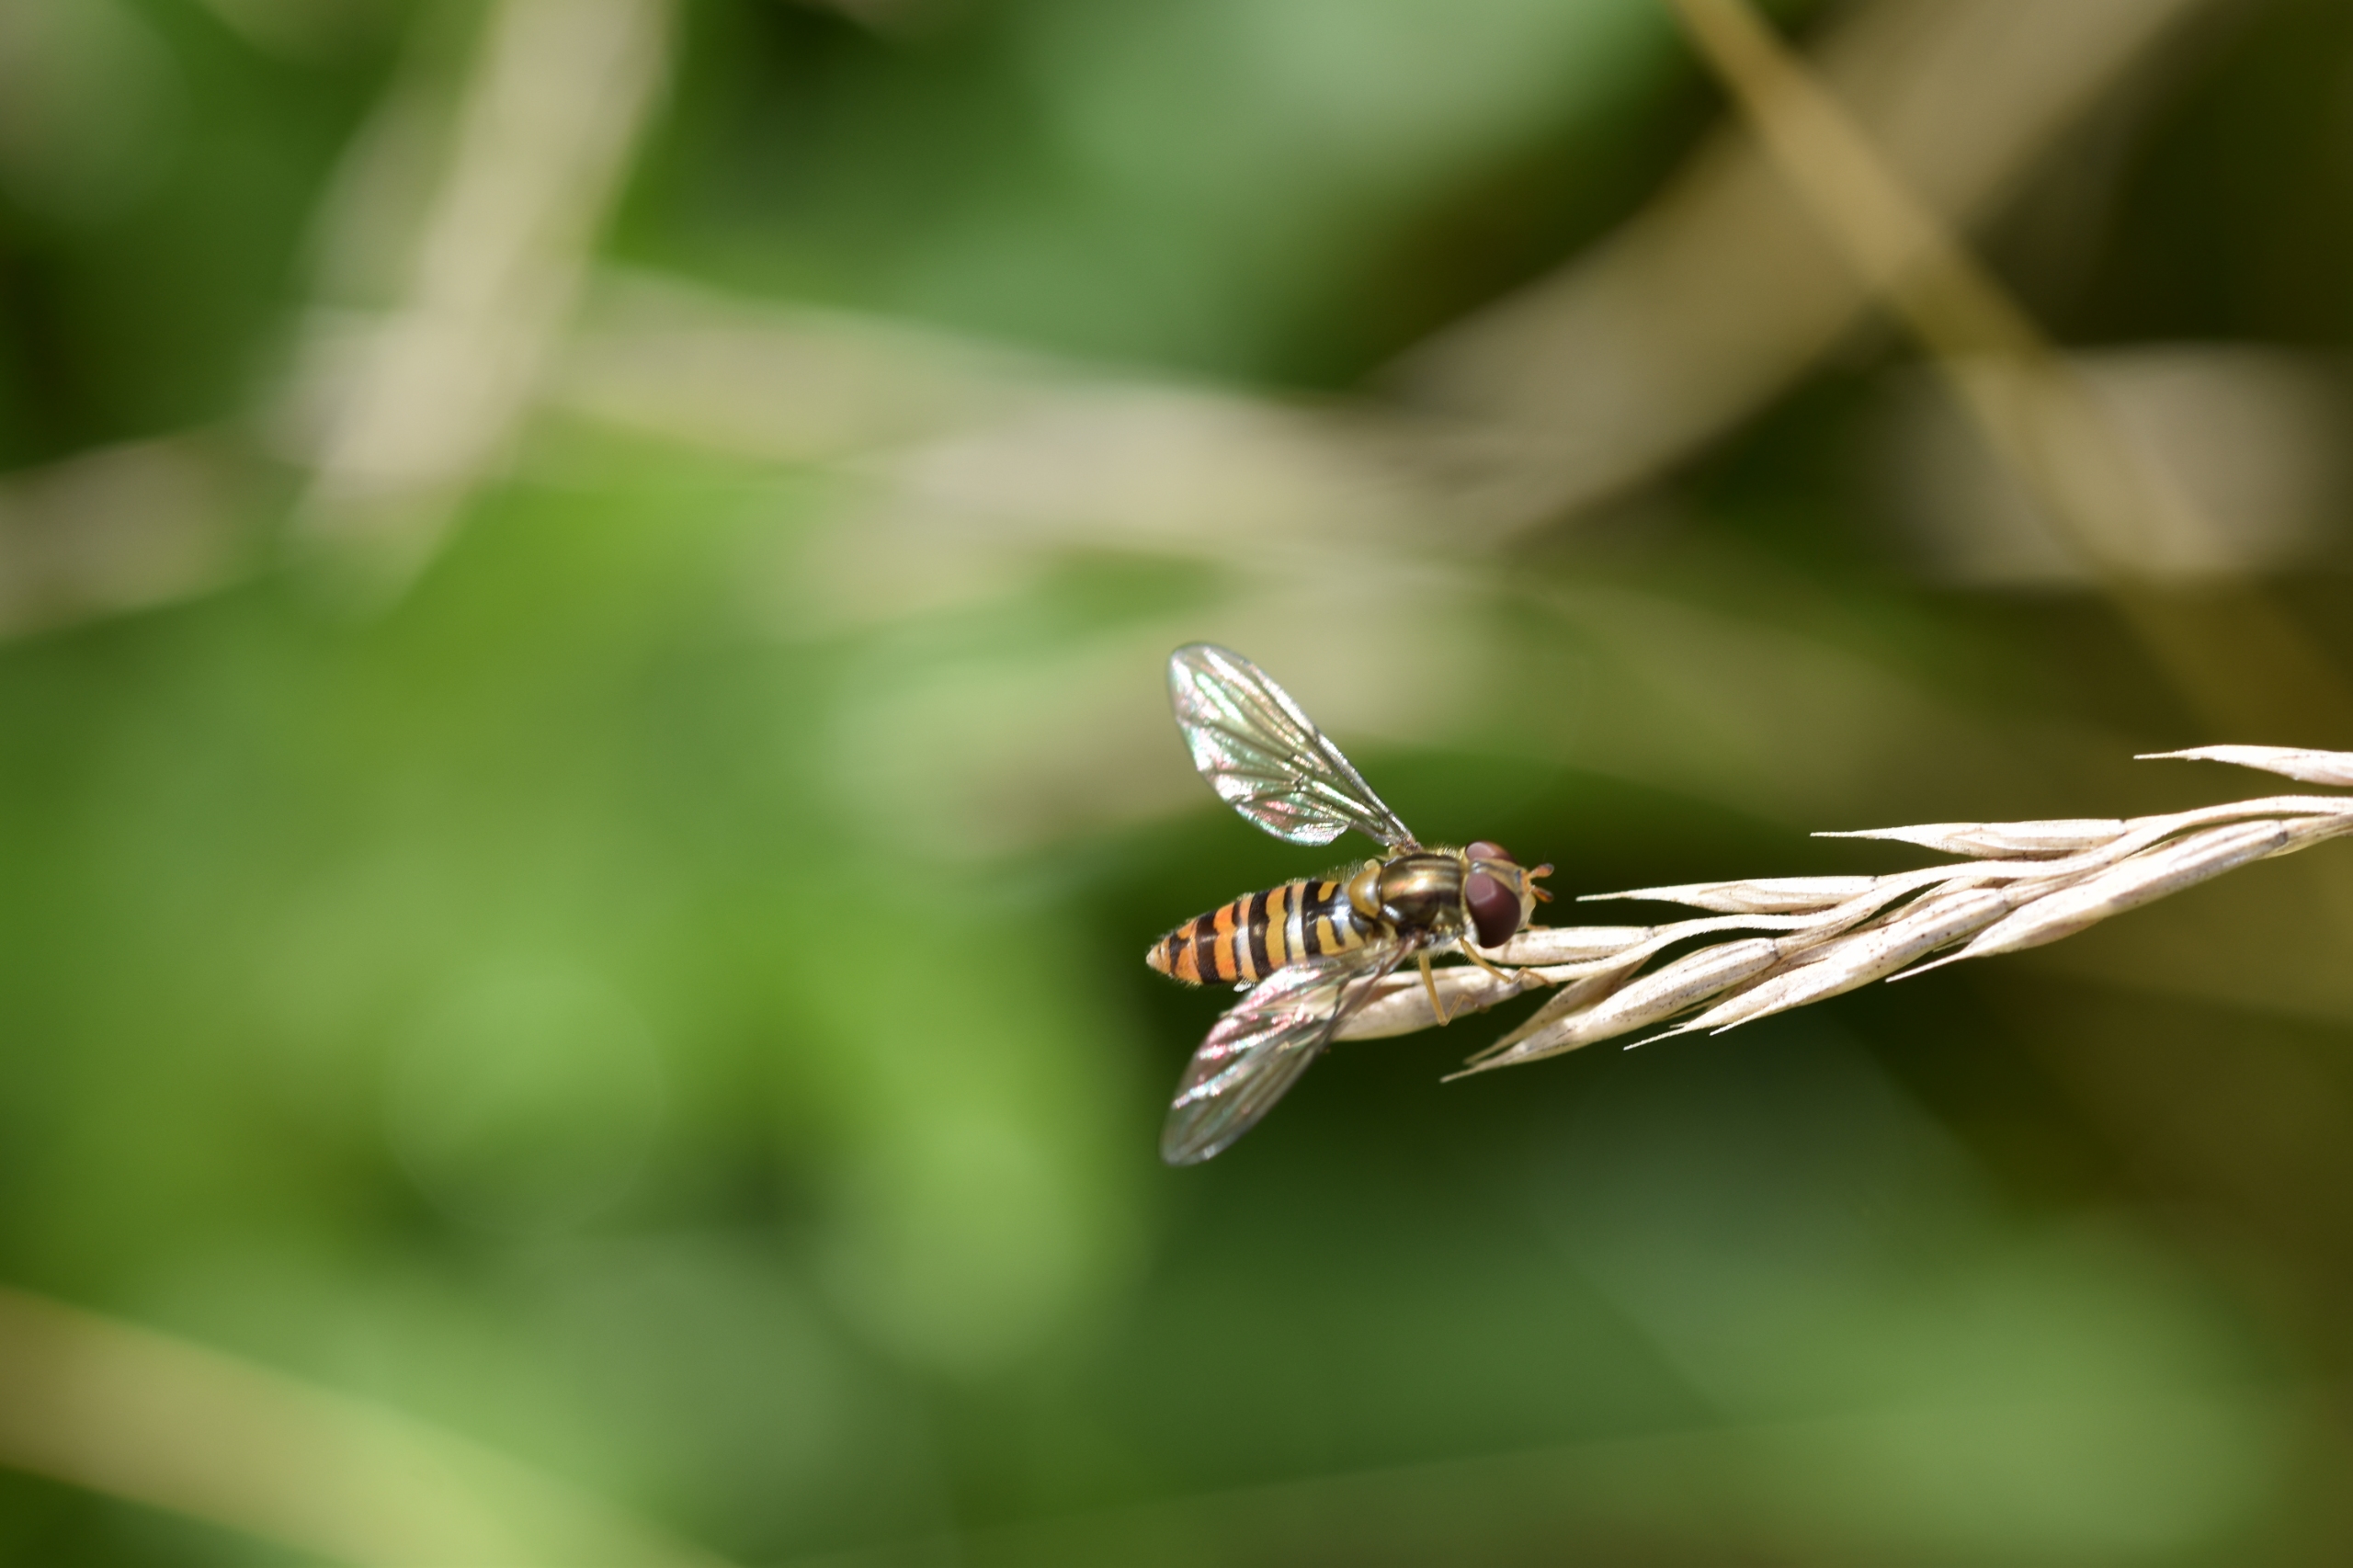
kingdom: Animalia
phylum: Arthropoda
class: Insecta
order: Diptera
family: Syrphidae
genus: Episyrphus
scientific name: Episyrphus balteatus
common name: Dobbeltbåndet svirreflue
